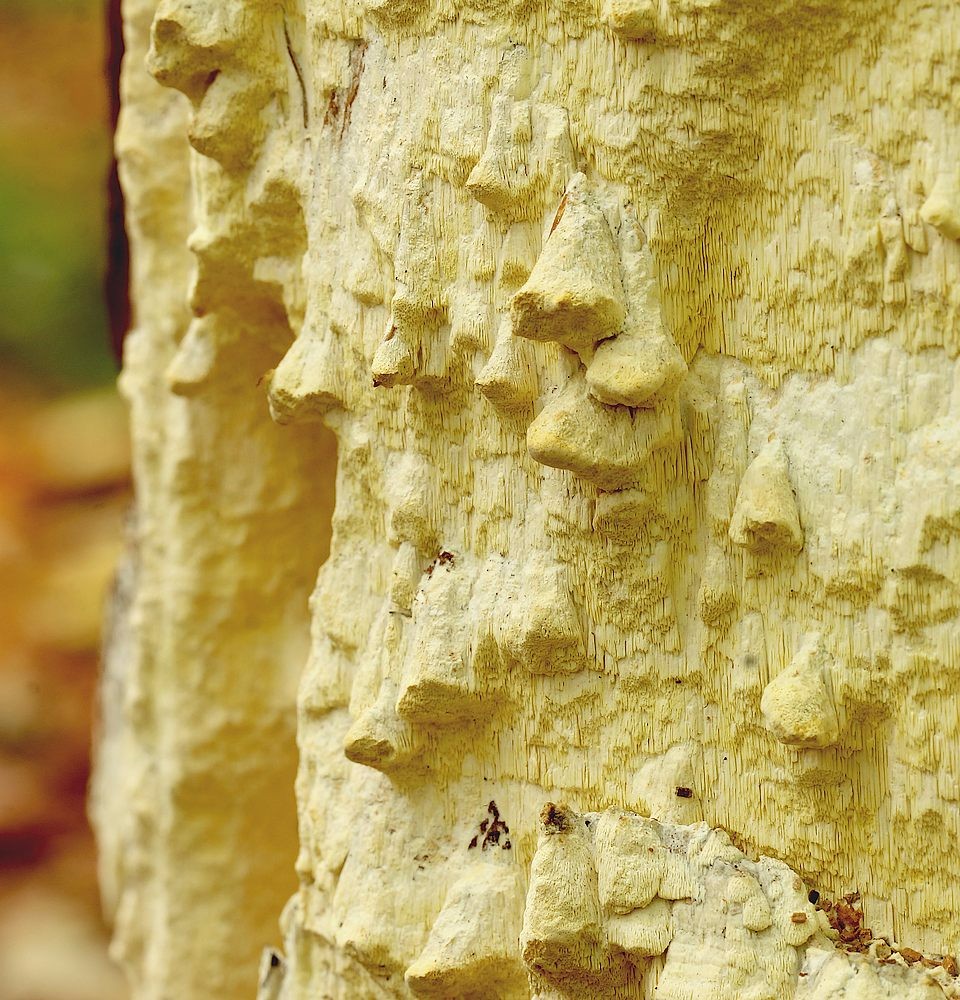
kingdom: Fungi
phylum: Basidiomycota
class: Agaricomycetes
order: Polyporales
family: Fomitopsidaceae
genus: Daedalea
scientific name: Daedalea xantha
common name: gul sejporesvamp
